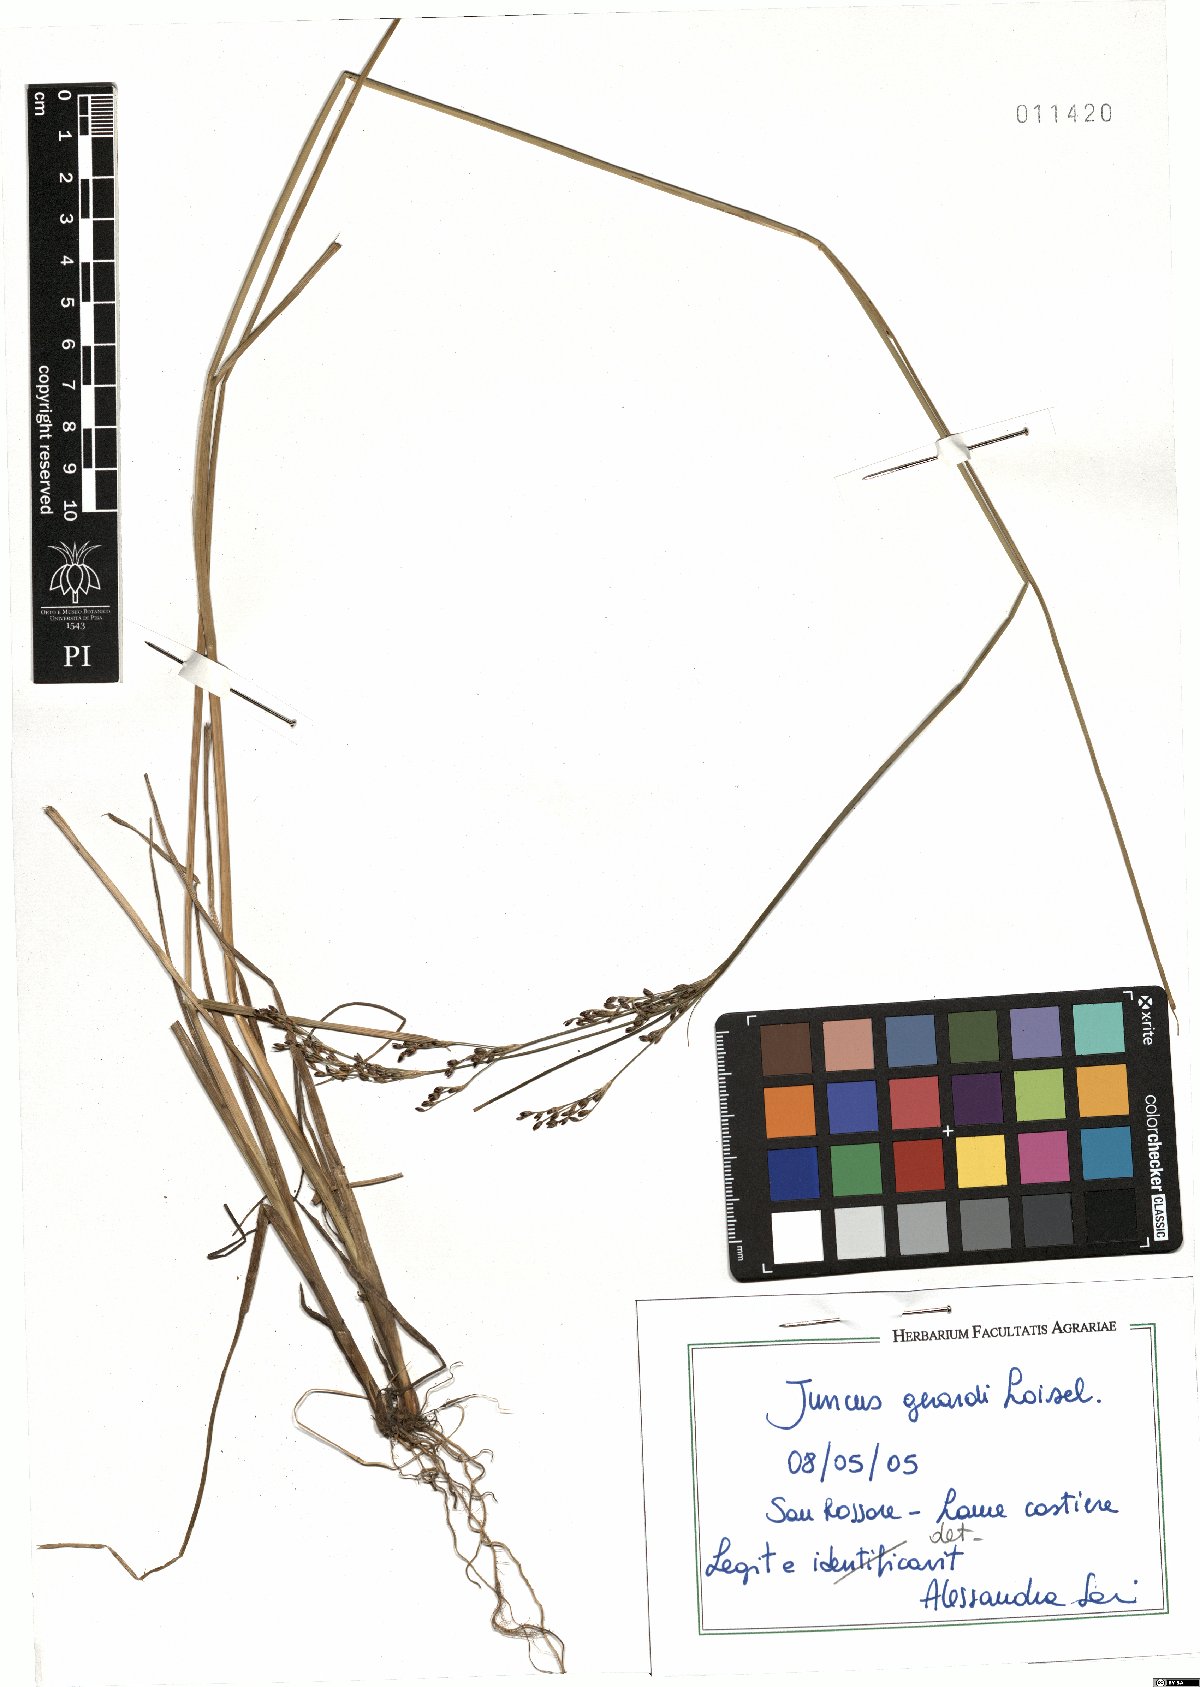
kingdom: Plantae
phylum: Tracheophyta
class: Liliopsida
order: Poales
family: Juncaceae
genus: Juncus
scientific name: Juncus gerardi
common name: Saltmarsh rush
